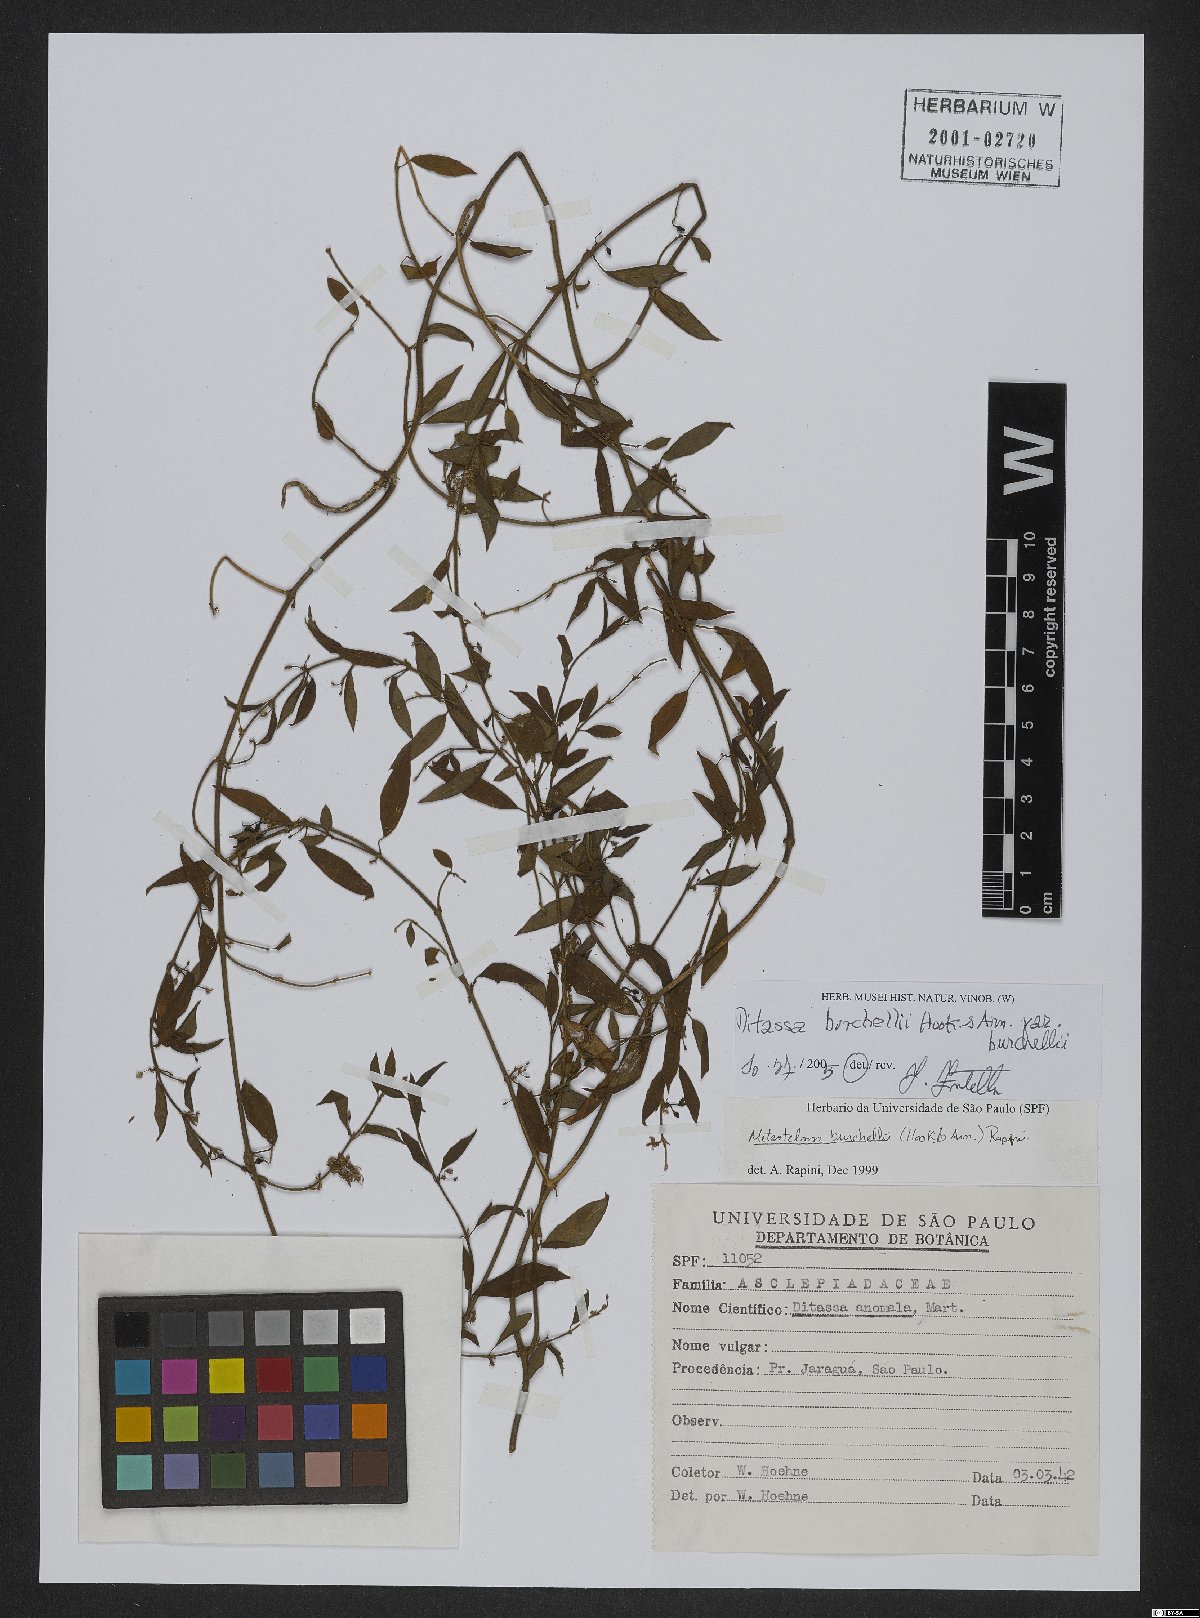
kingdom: Plantae
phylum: Tracheophyta
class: Magnoliopsida
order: Gentianales
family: Apocynaceae
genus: Metastelma
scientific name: Metastelma burchellii
